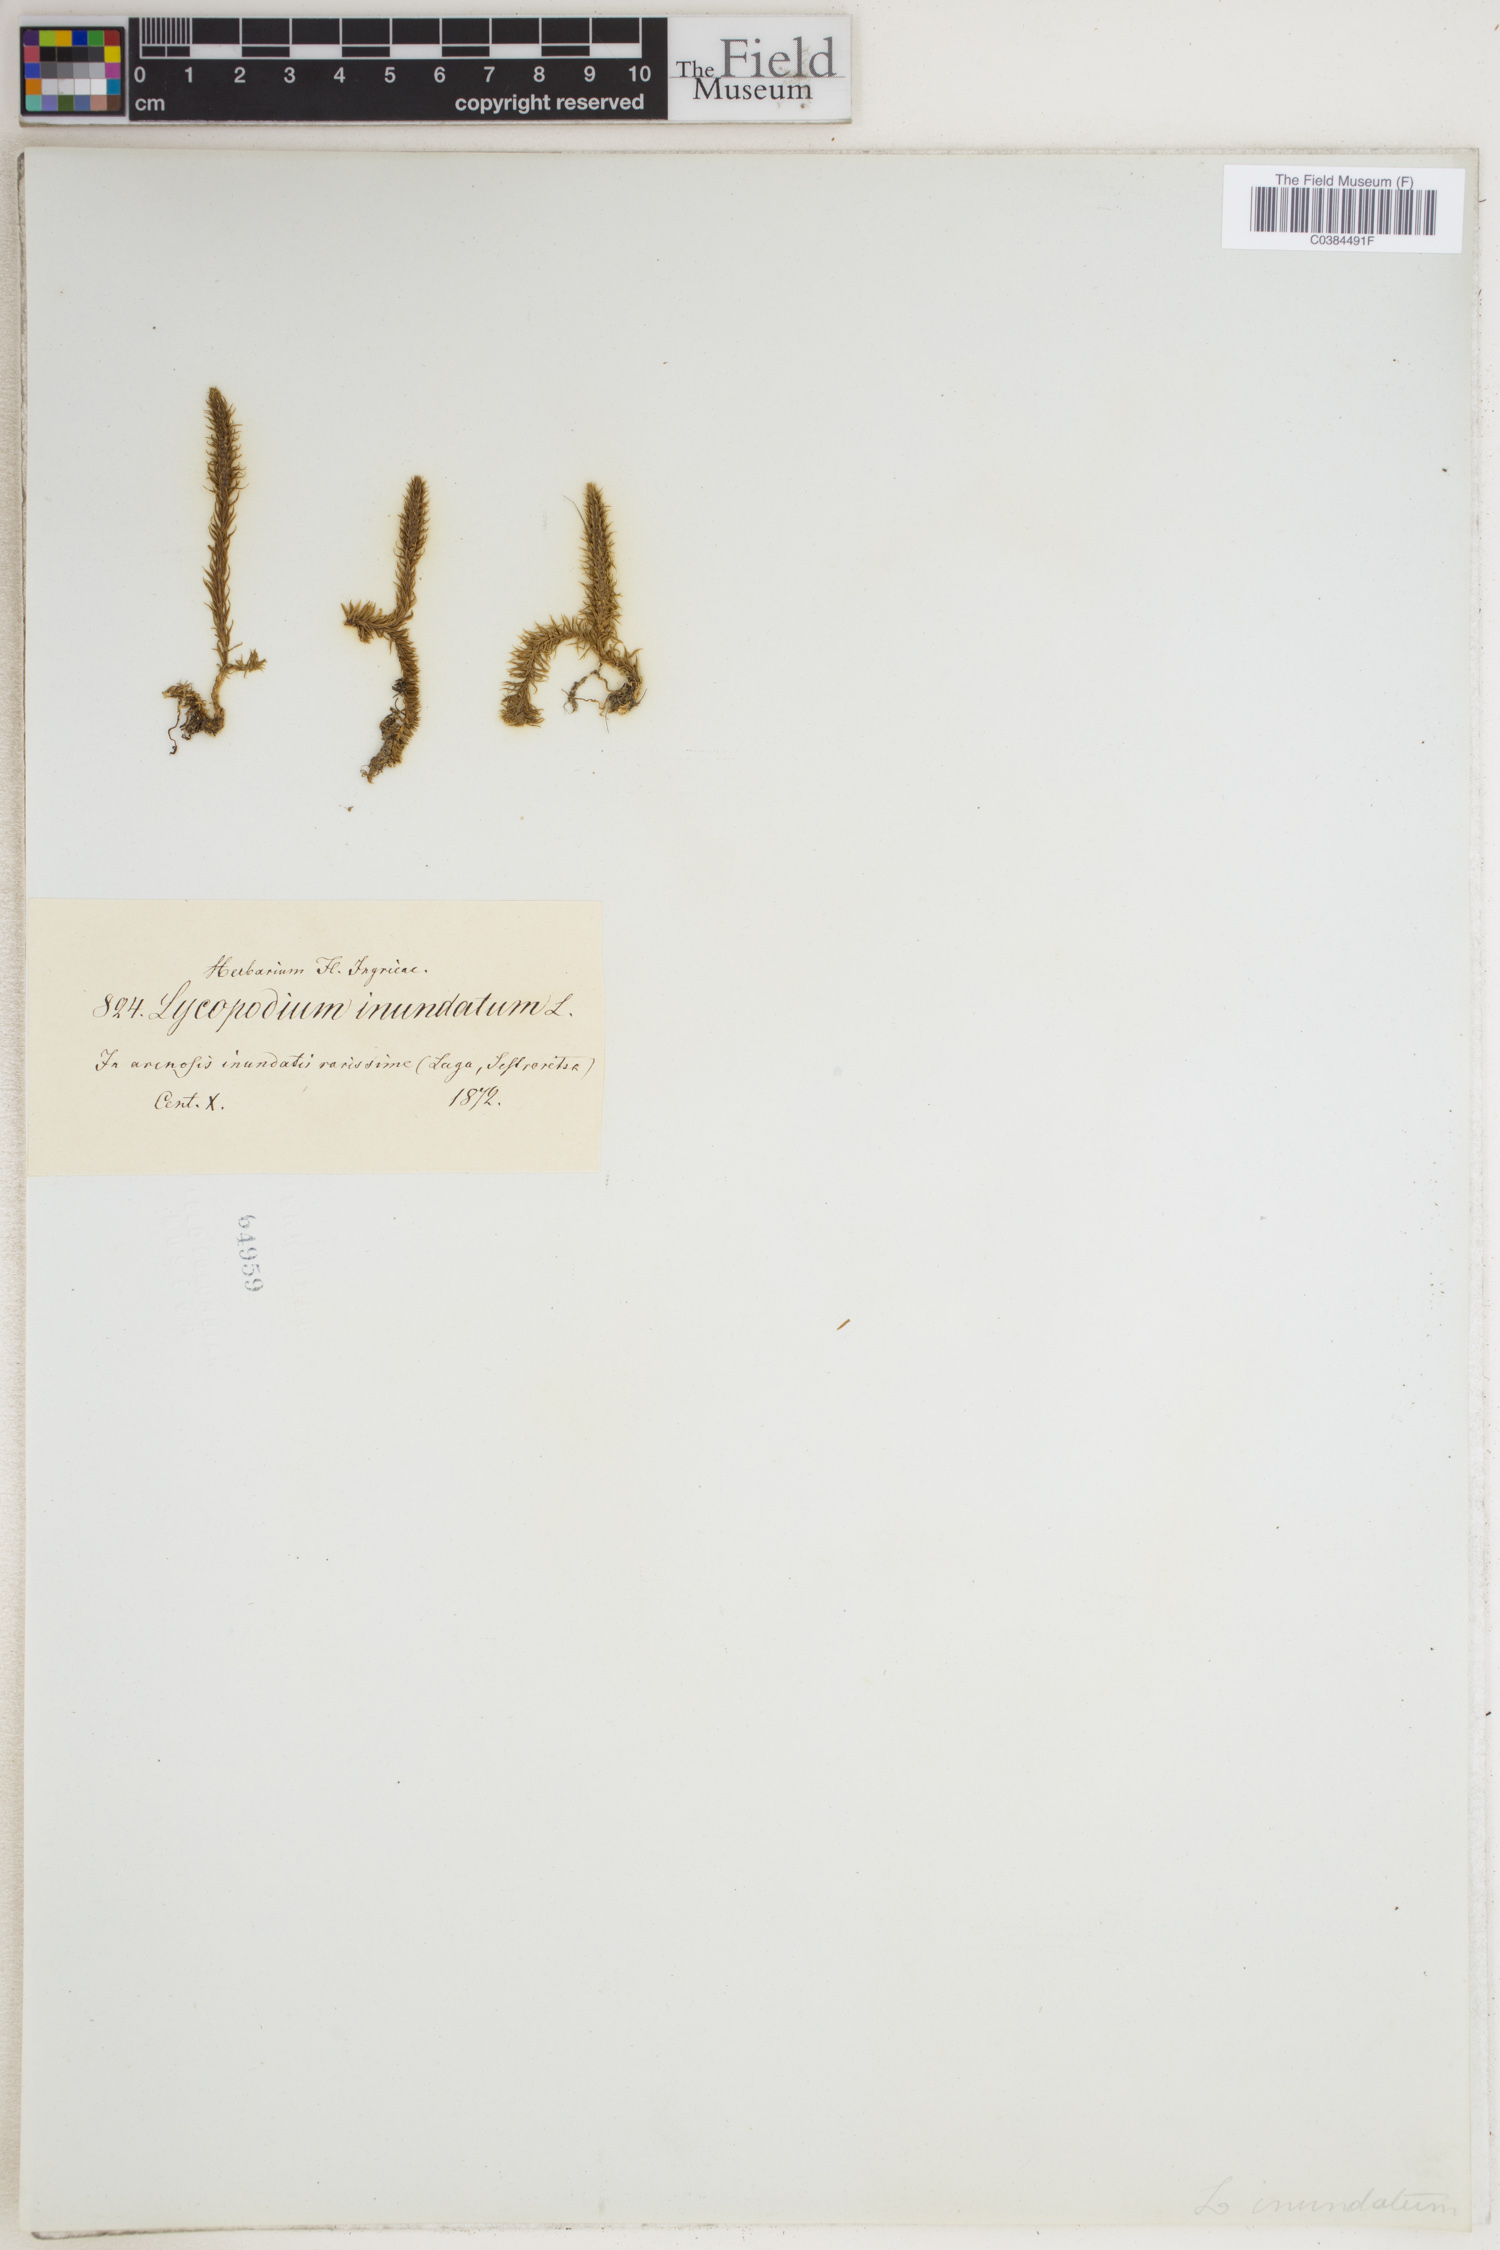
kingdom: Plantae
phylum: Tracheophyta
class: Lycopodiopsida
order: Lycopodiales
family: Lycopodiaceae
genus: Lycopodiella
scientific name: Lycopodiella inundata
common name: Marsh clubmoss
